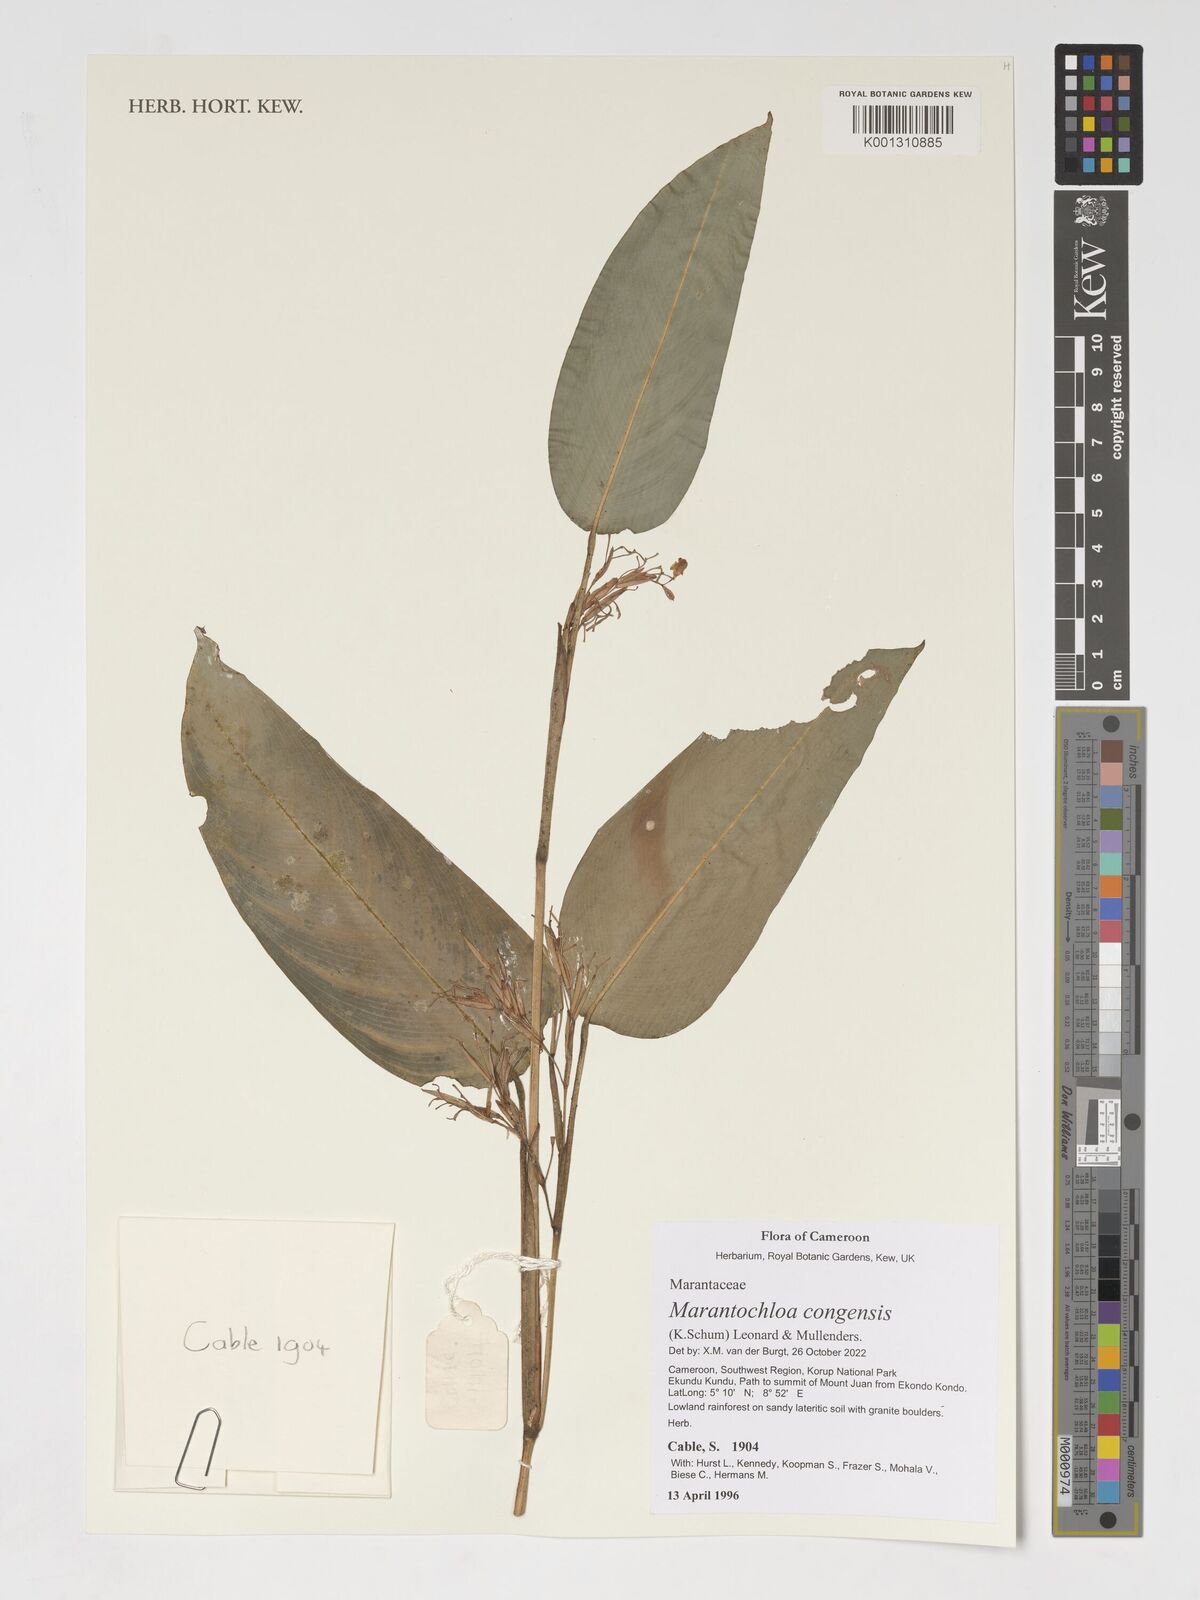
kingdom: Plantae
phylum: Tracheophyta
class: Liliopsida
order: Zingiberales
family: Marantaceae
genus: Marantochloa
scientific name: Marantochloa congensis
